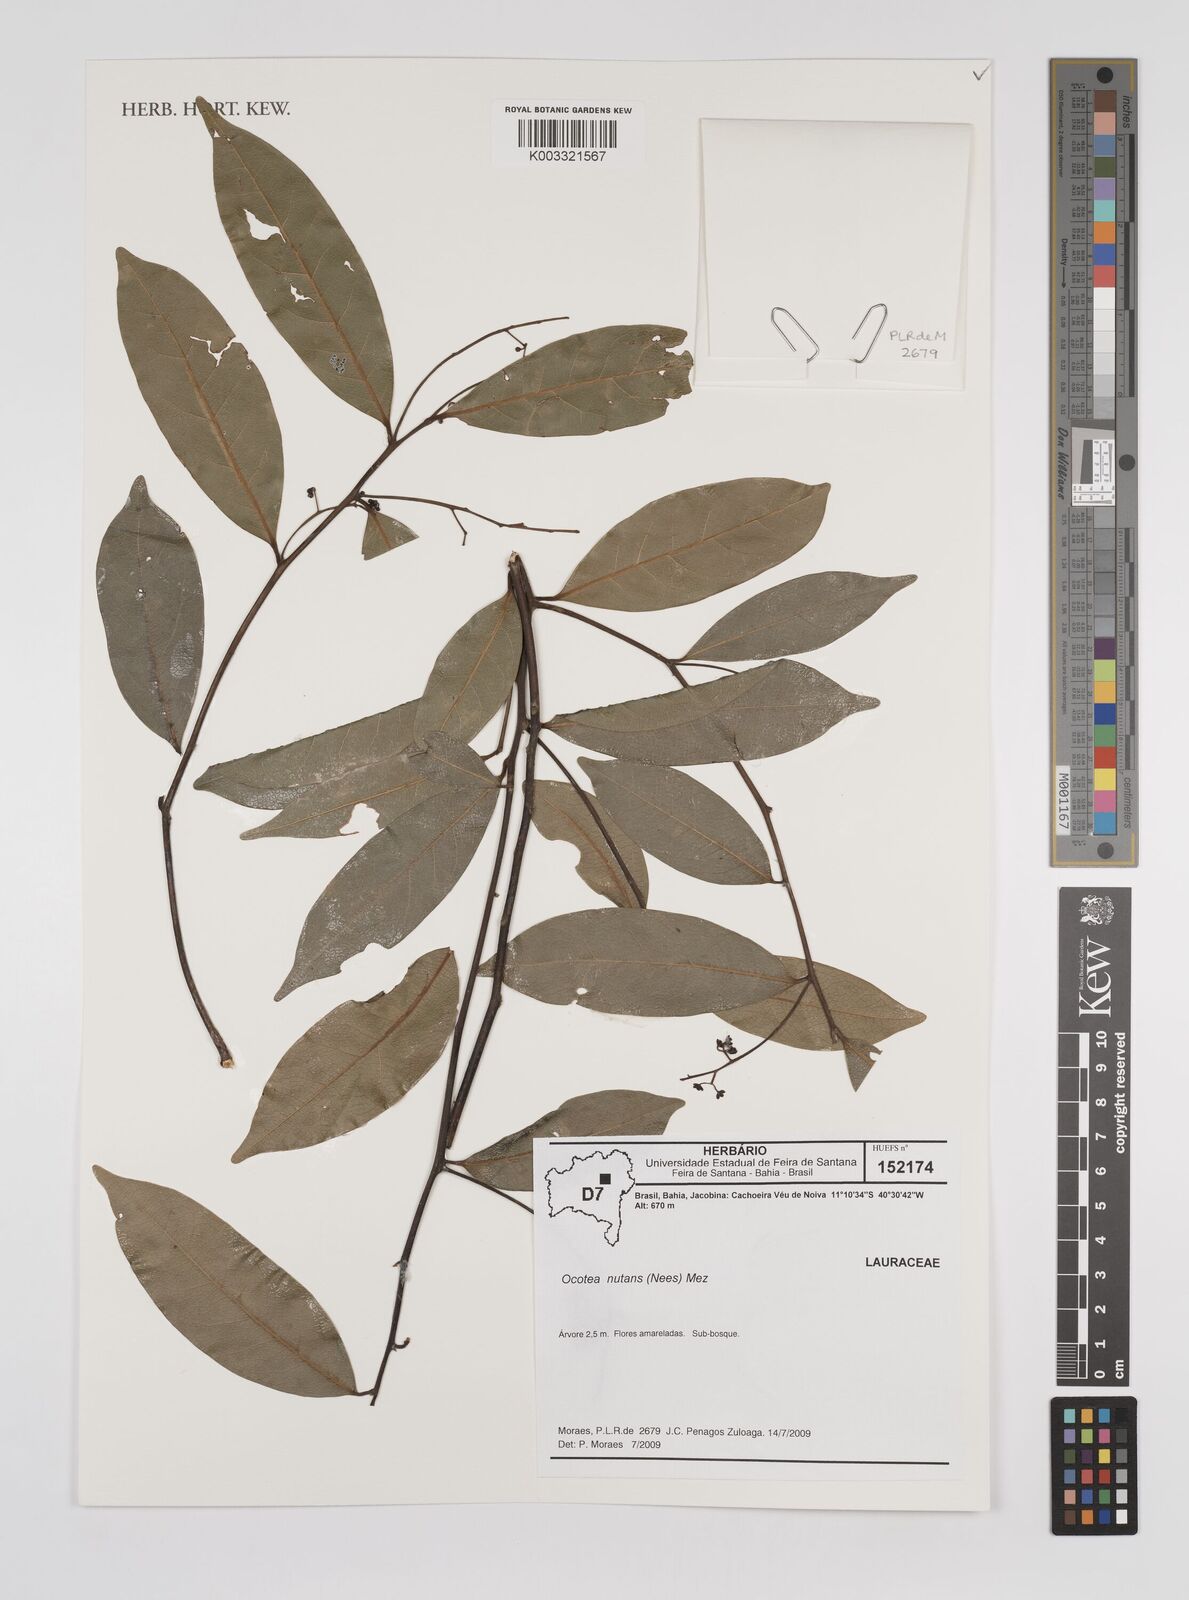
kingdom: Plantae
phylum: Tracheophyta
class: Magnoliopsida
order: Laurales
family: Lauraceae
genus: Mespilodaphne
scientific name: Mespilodaphne nutans
